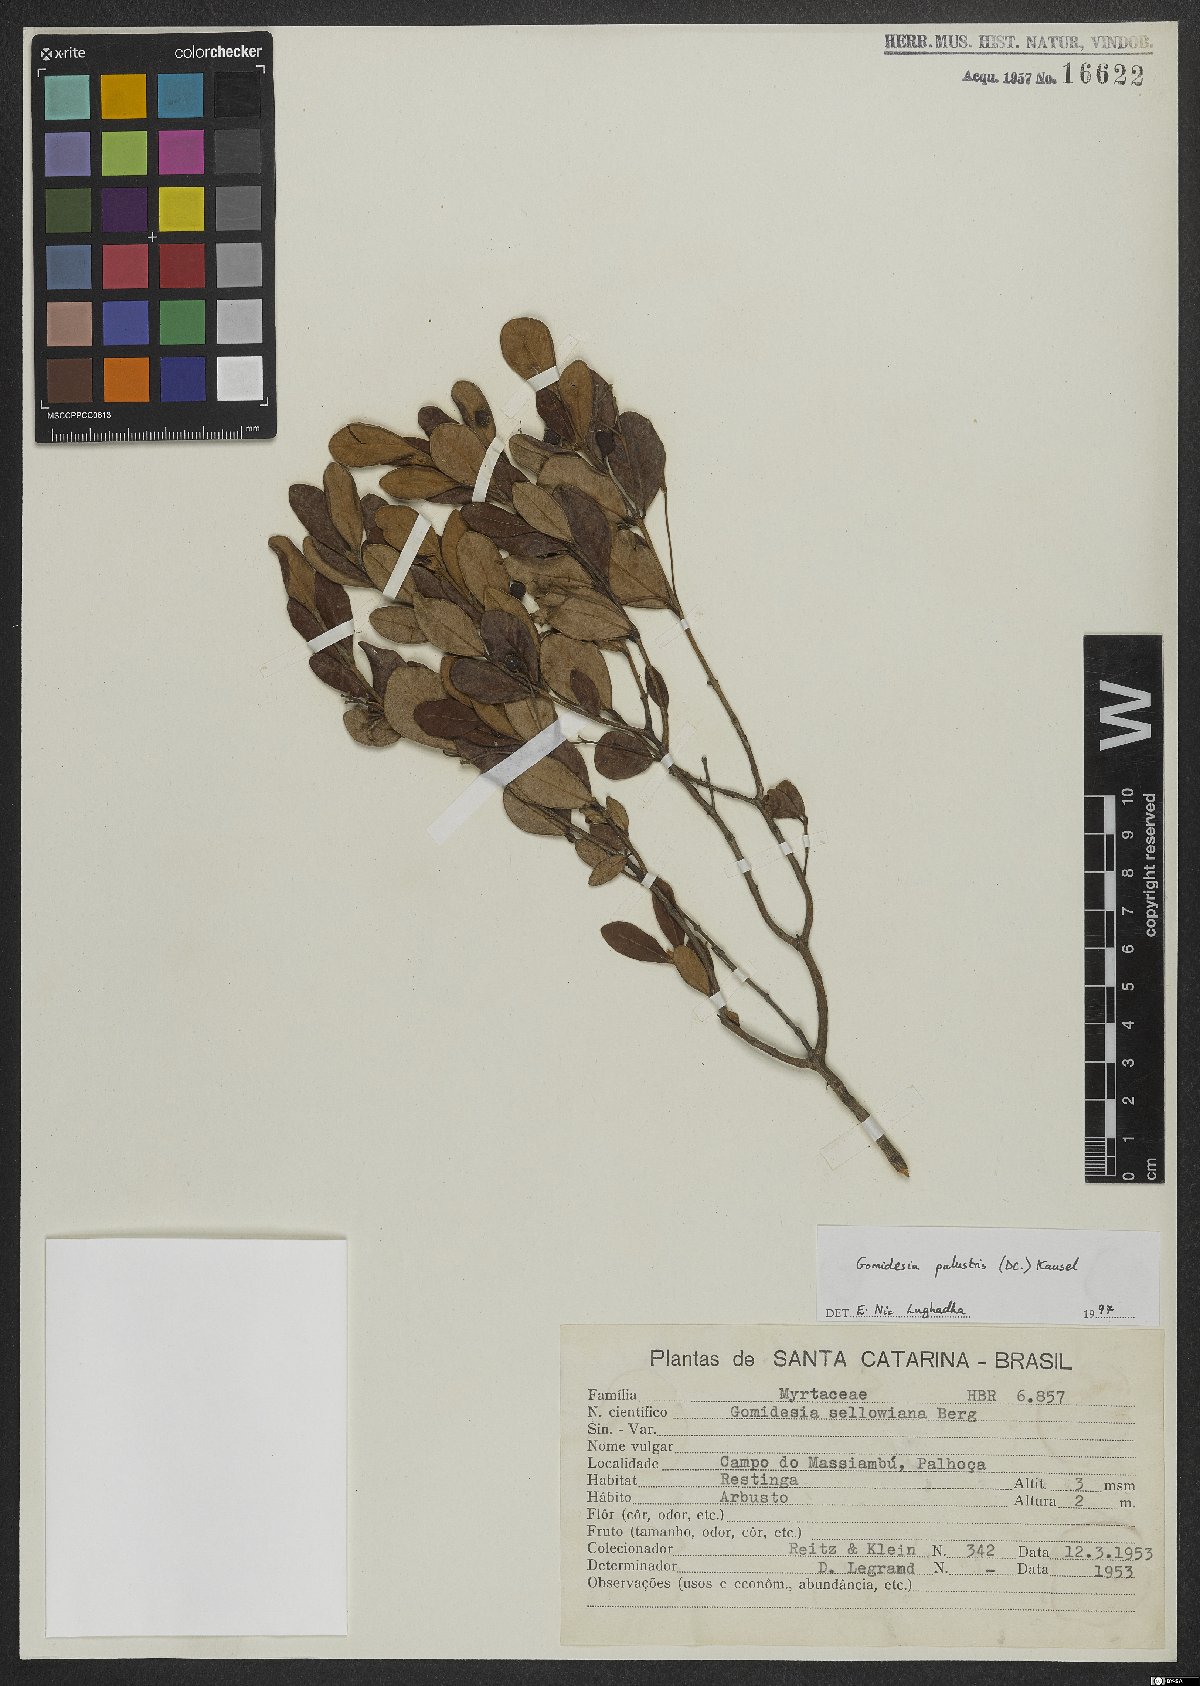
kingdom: Plantae
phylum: Tracheophyta
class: Magnoliopsida
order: Myrtales
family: Myrtaceae
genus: Myrcia
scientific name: Myrcia palustris
